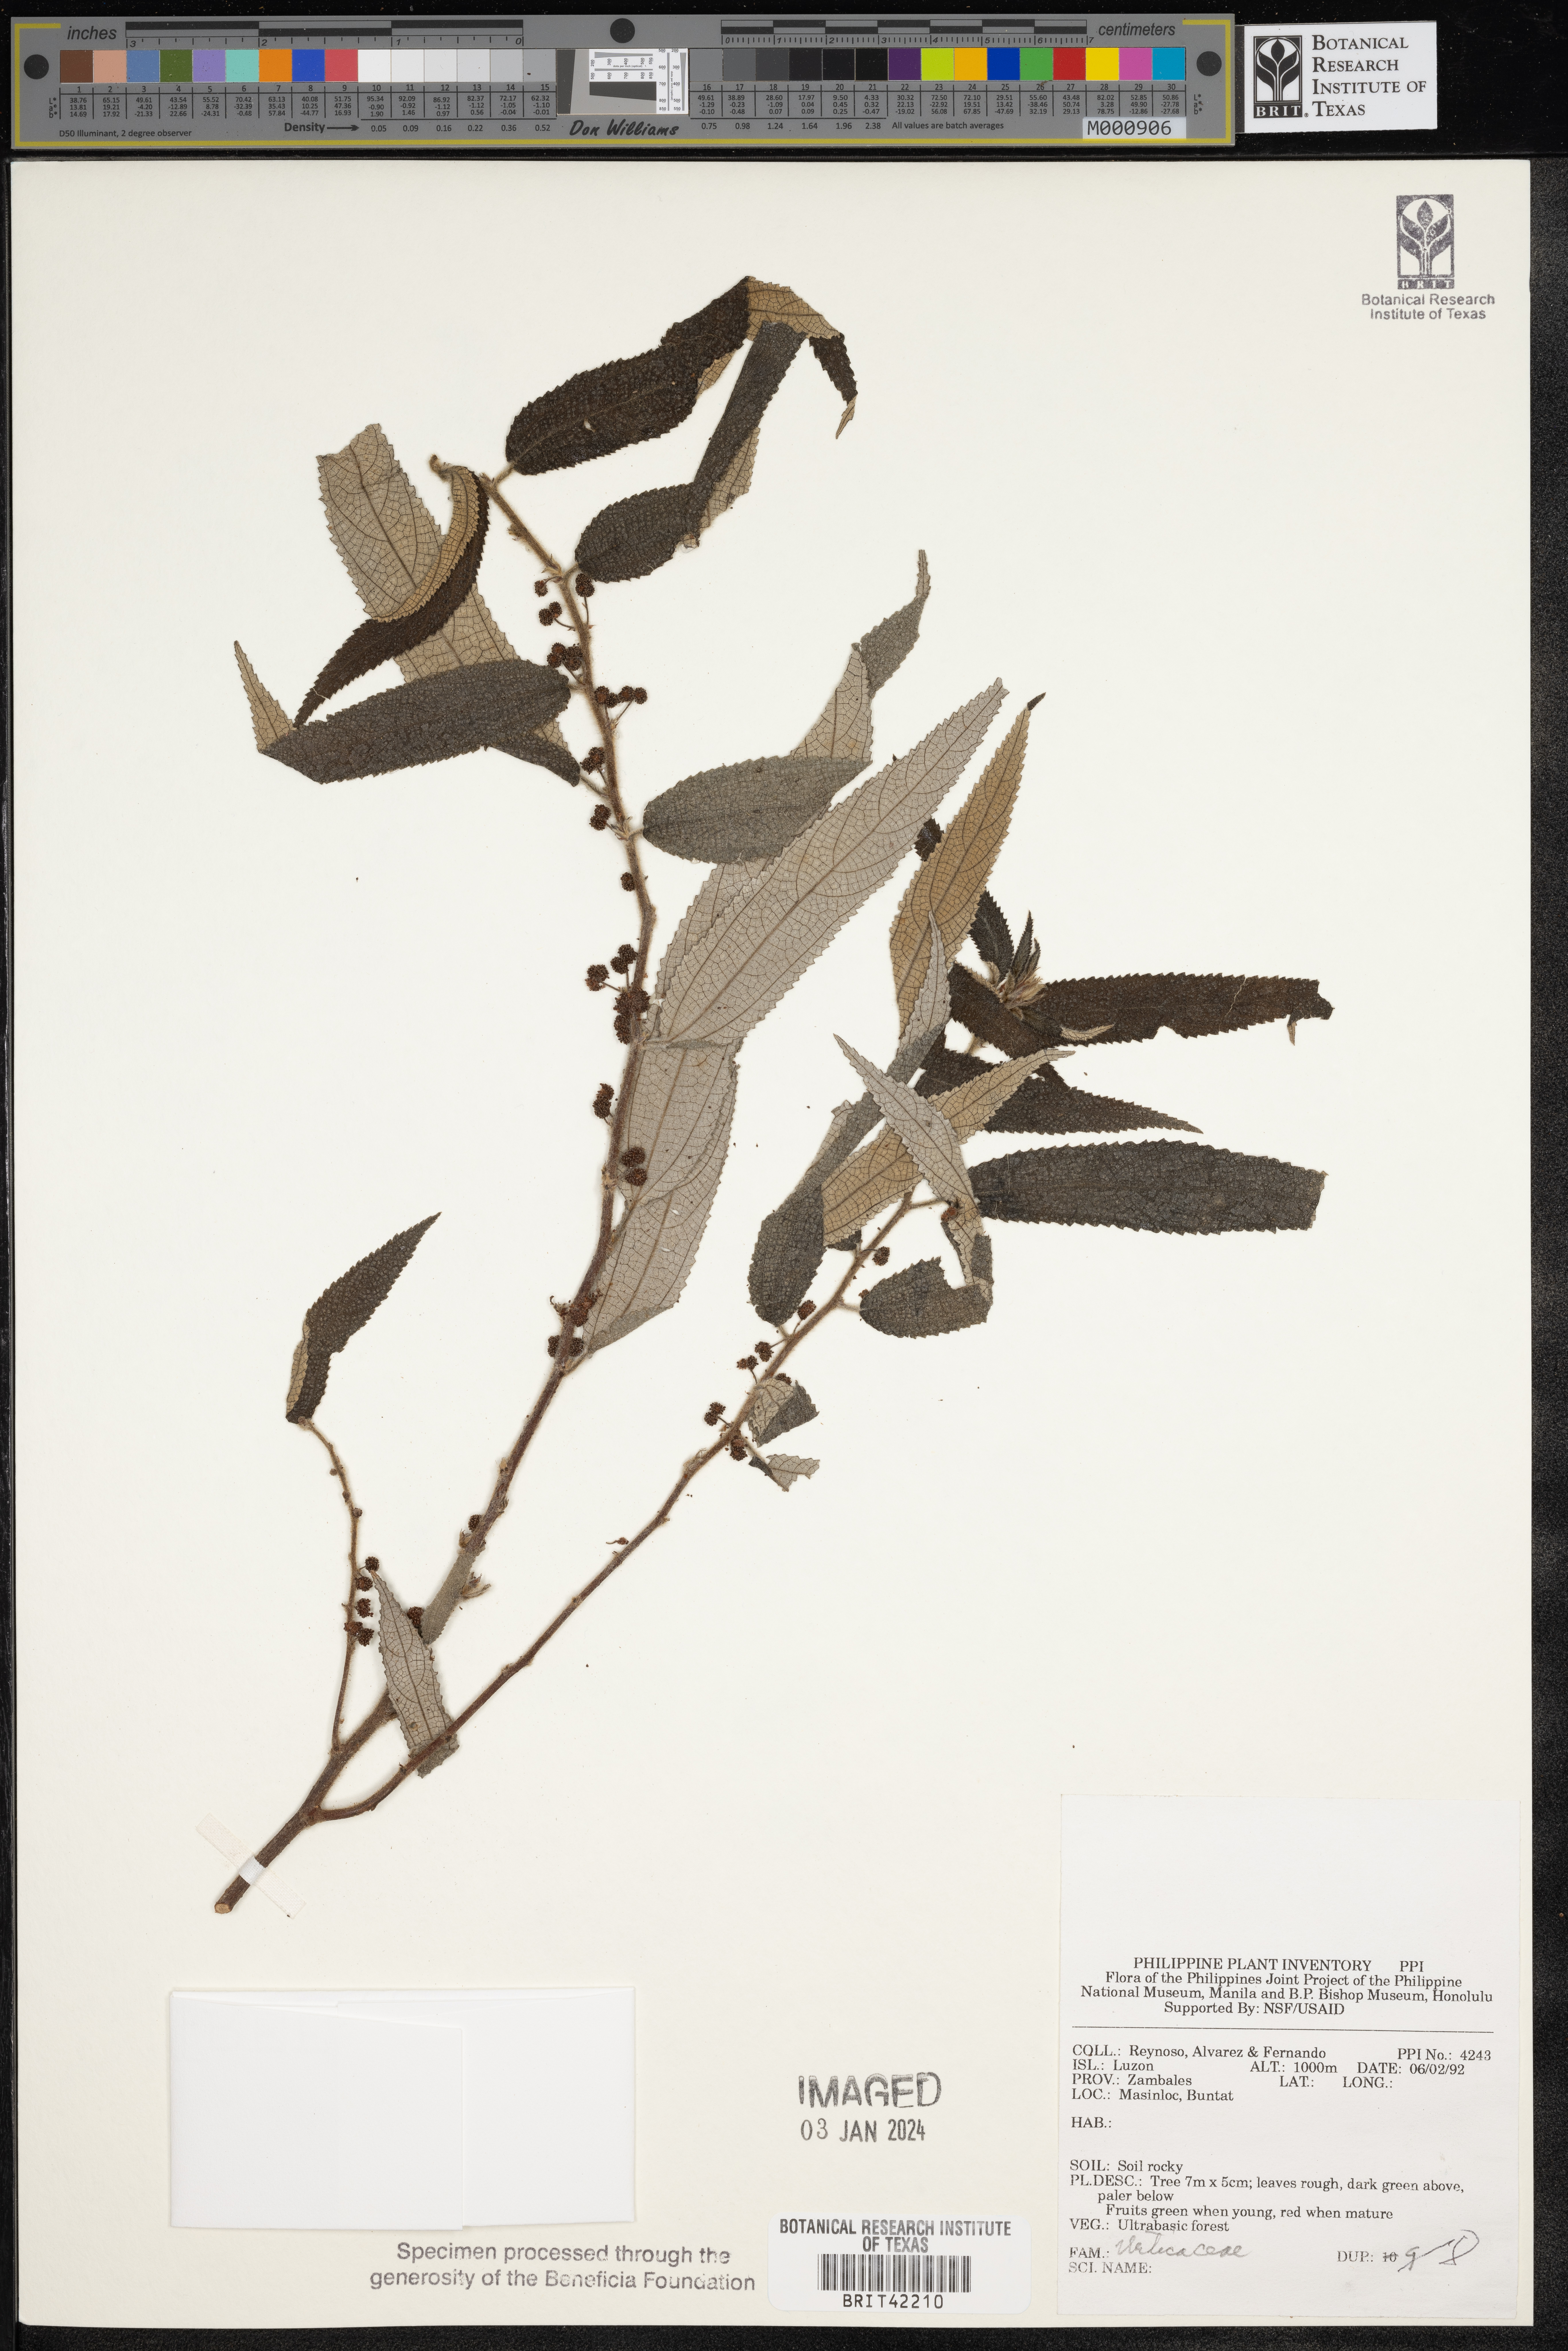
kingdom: Plantae
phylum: Tracheophyta
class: Magnoliopsida
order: Rosales
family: Urticaceae
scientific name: Urticaceae
